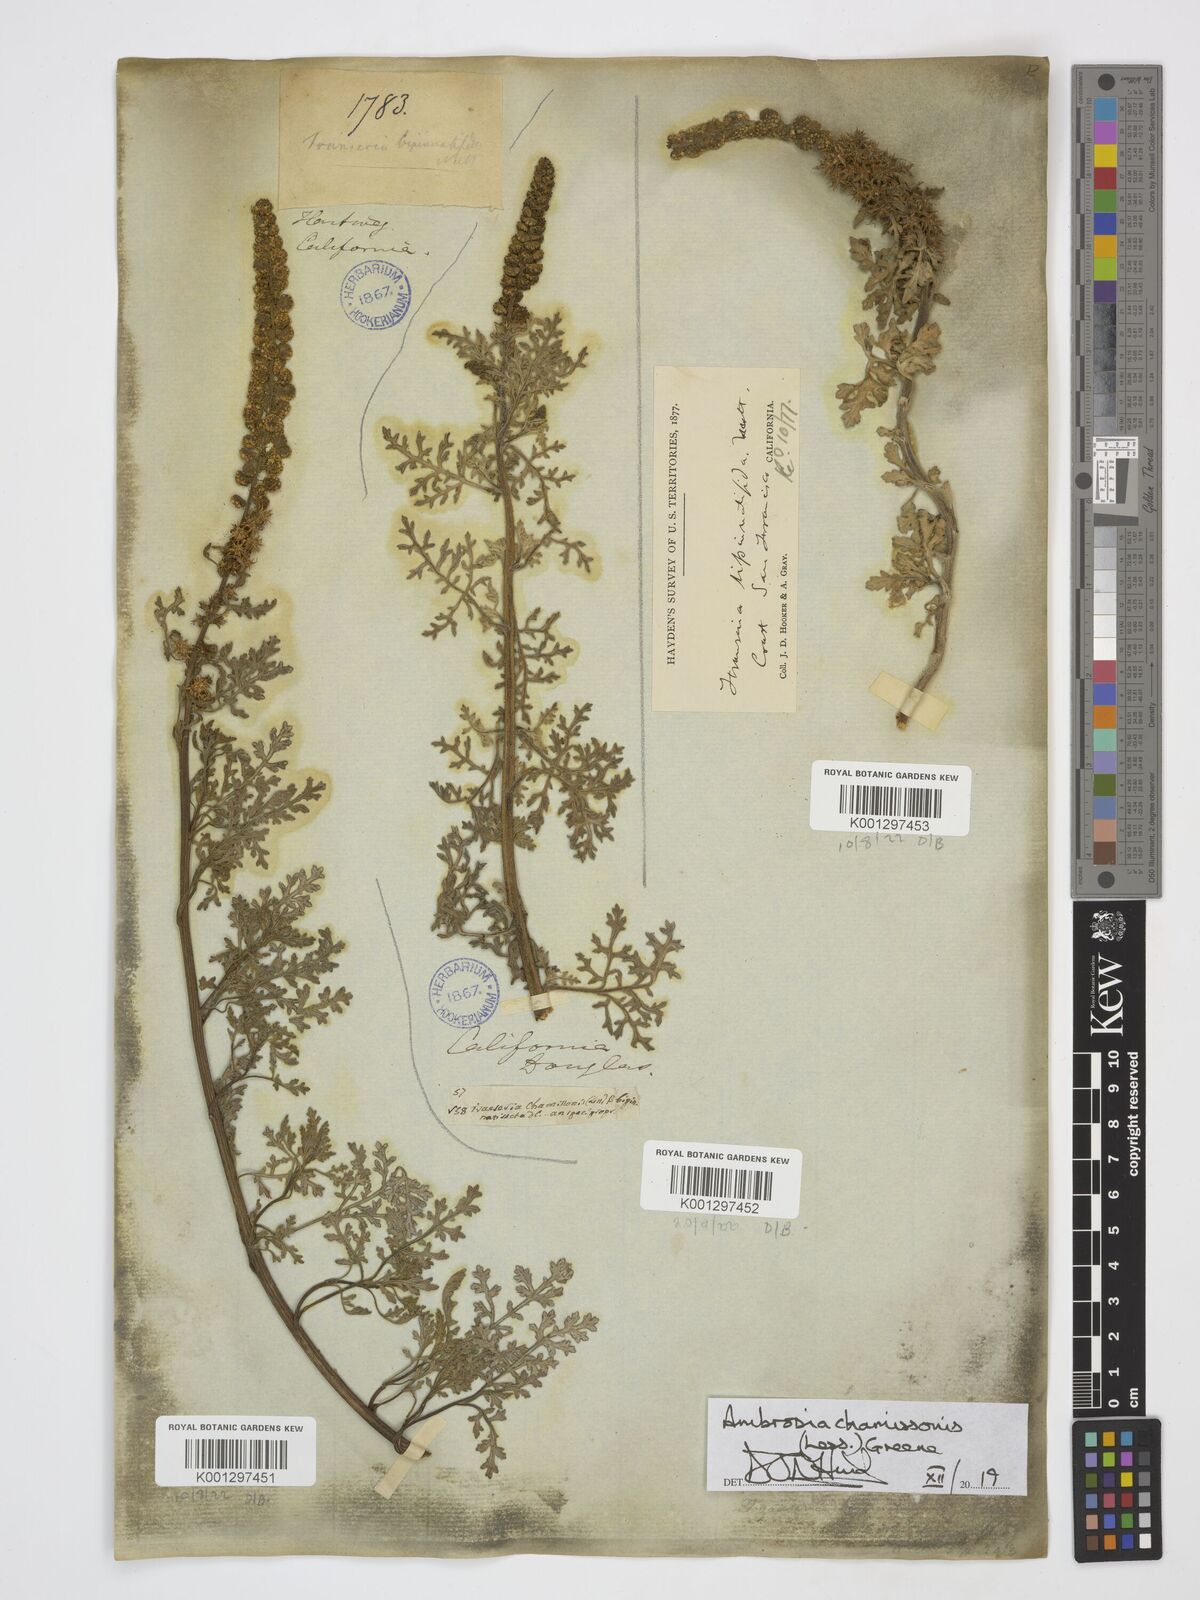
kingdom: Plantae
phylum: Tracheophyta
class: Magnoliopsida
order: Asterales
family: Asteraceae
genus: Ambrosia
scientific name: Ambrosia chamissonis
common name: Beachbur
